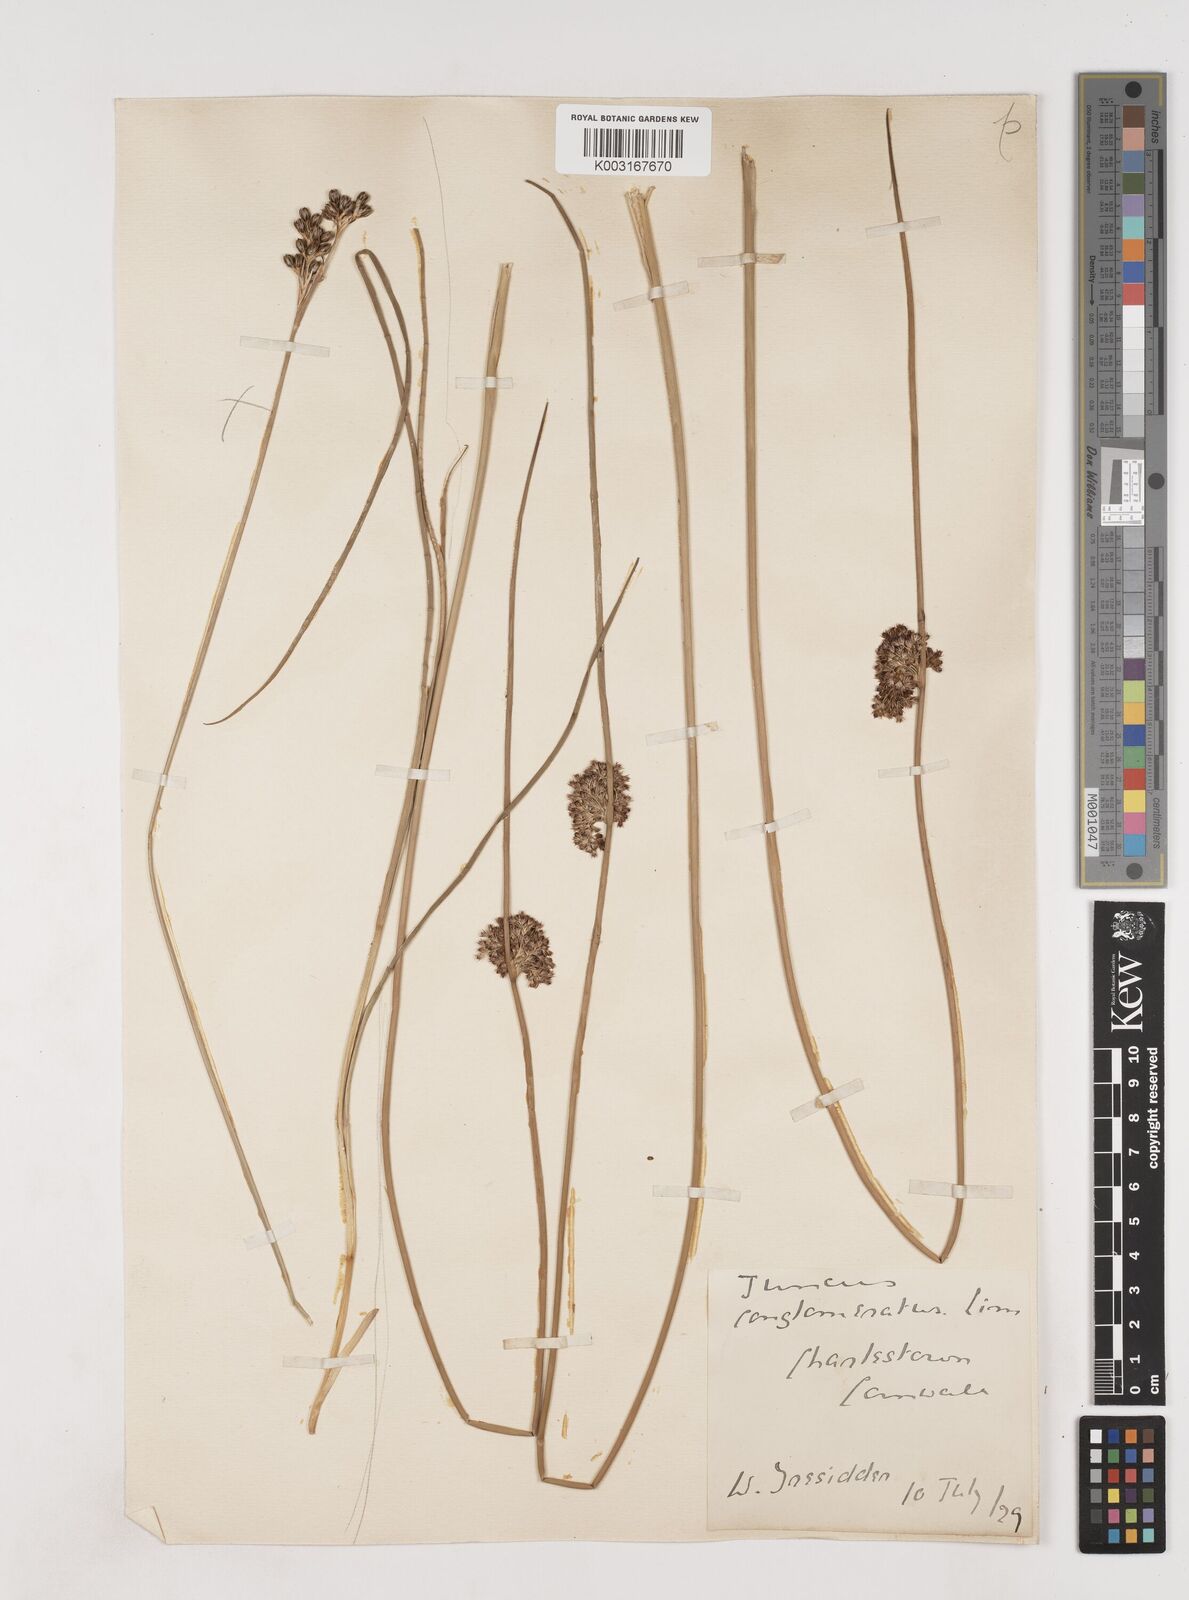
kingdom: Plantae
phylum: Tracheophyta
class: Liliopsida
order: Poales
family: Juncaceae
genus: Juncus
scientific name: Juncus effusus
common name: Soft rush
